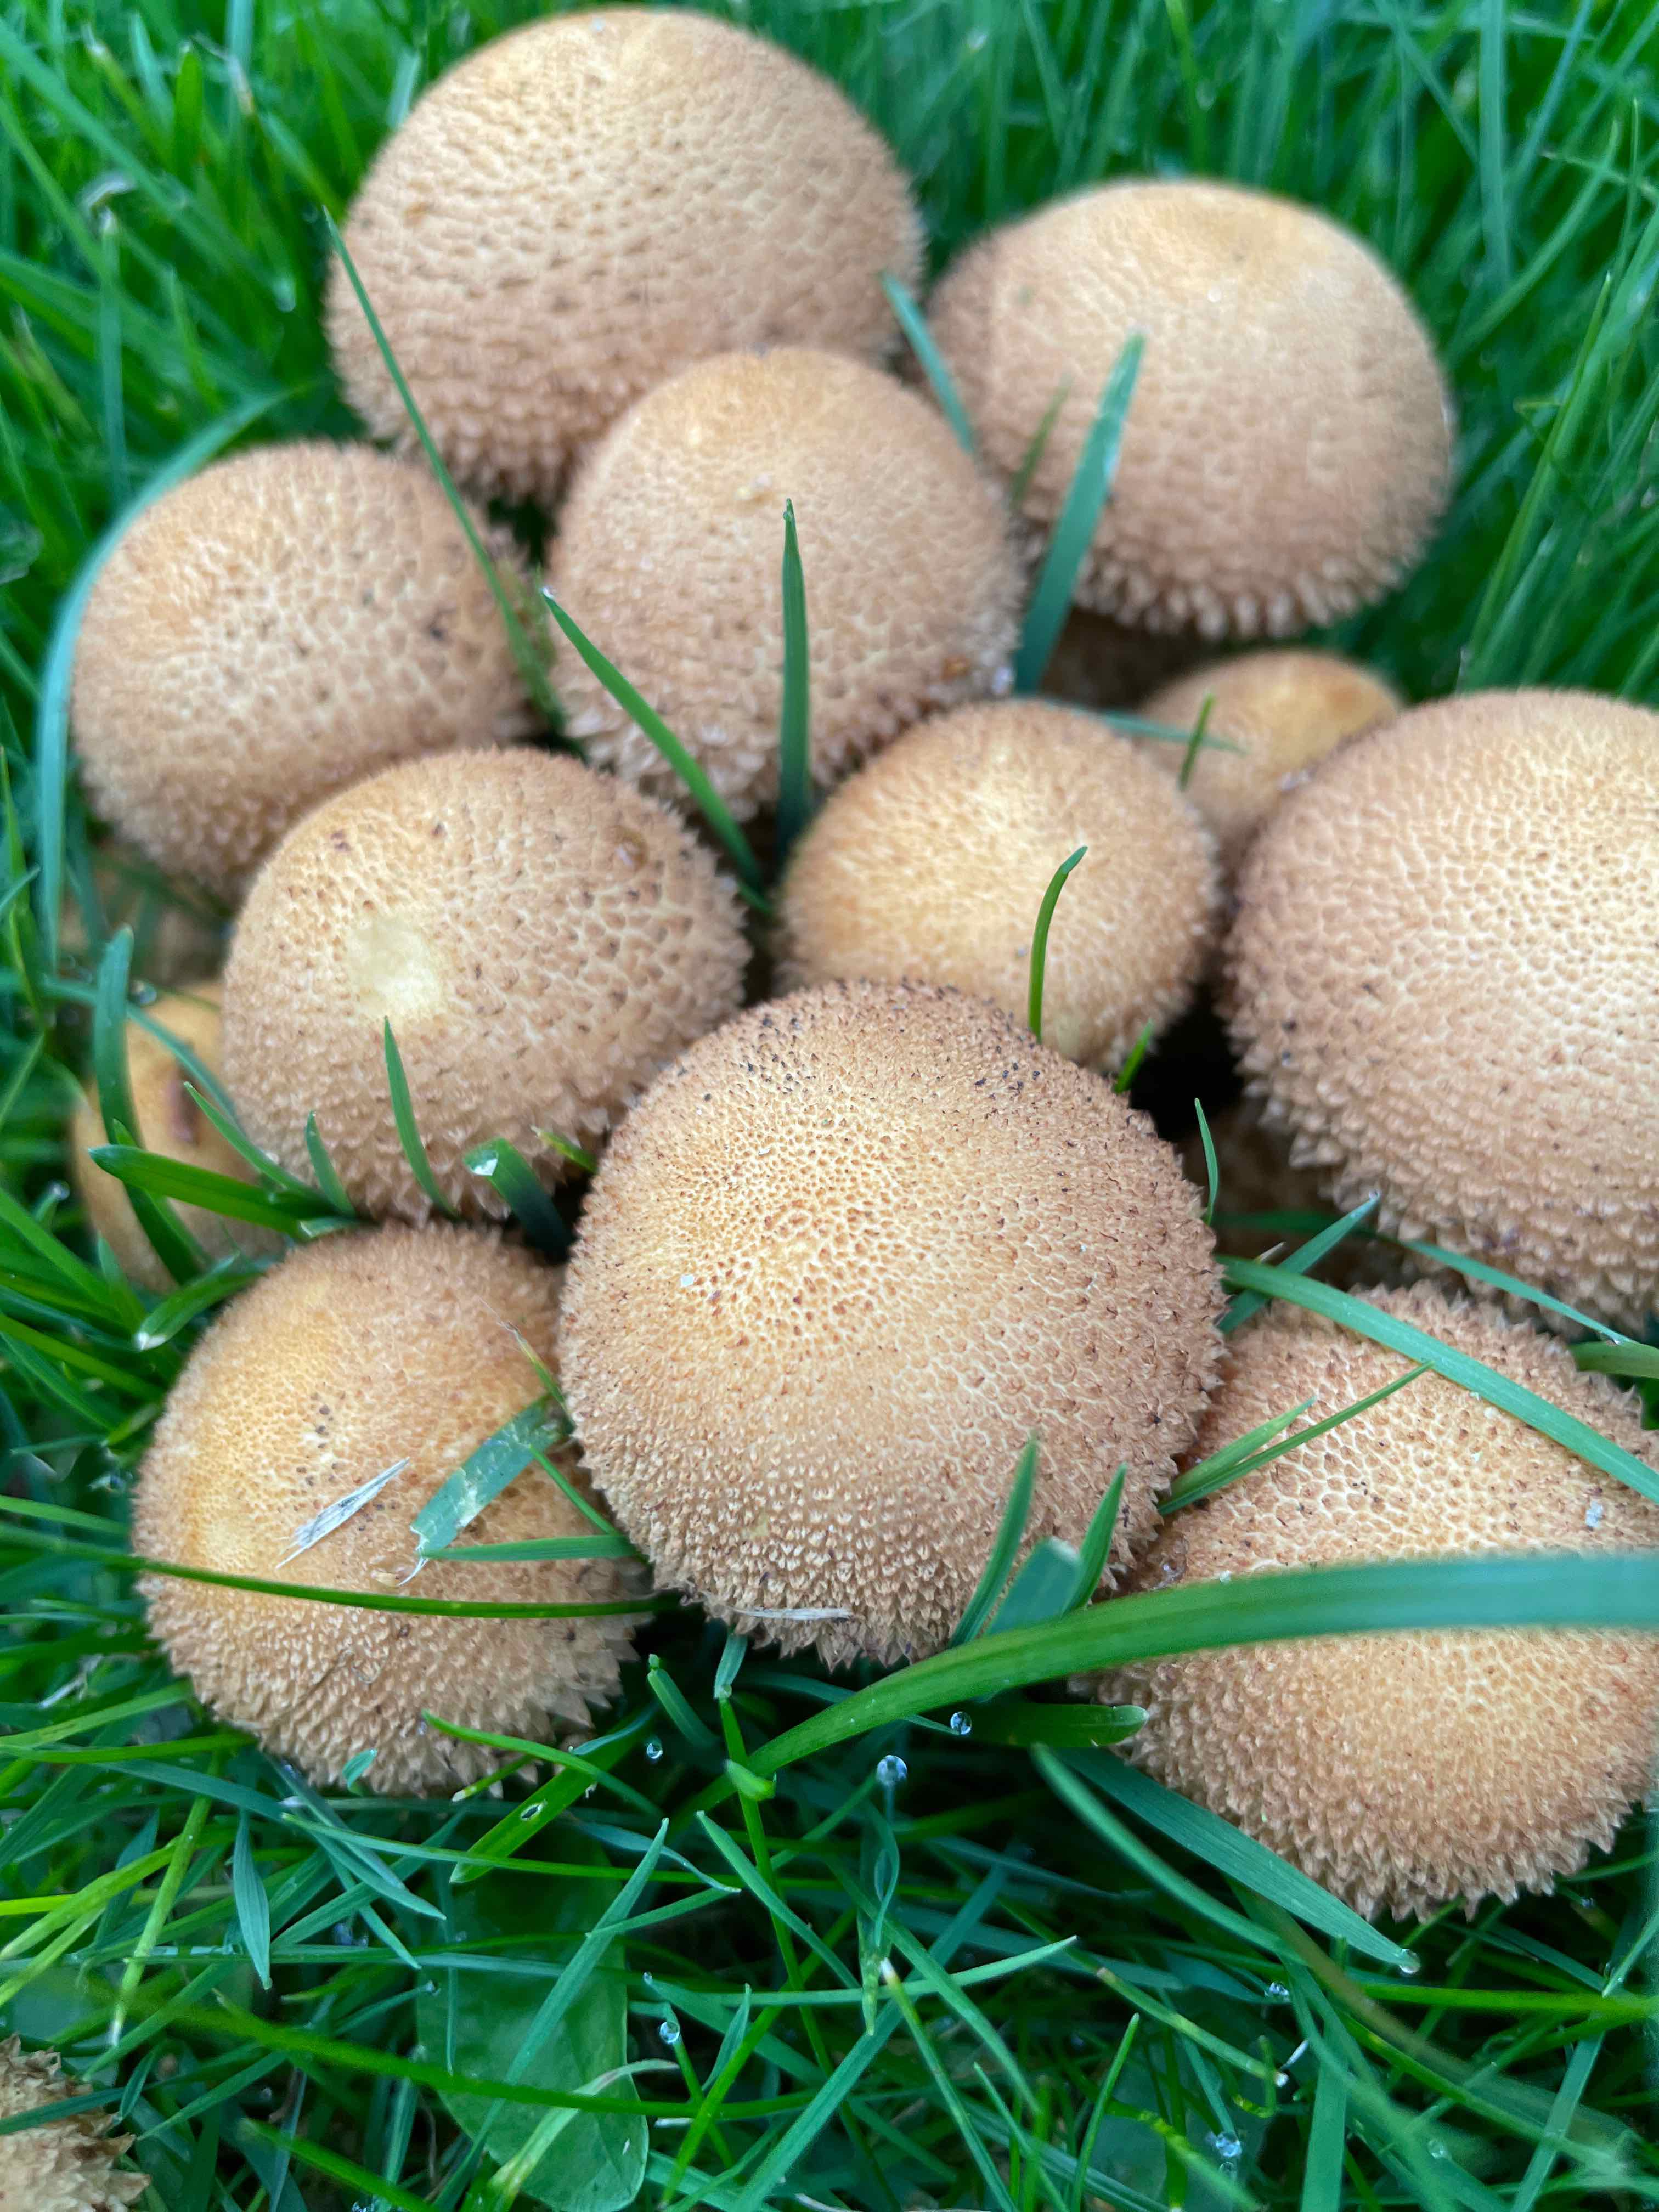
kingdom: Fungi
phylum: Basidiomycota
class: Agaricomycetes
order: Agaricales
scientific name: Agaricales
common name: champignonordenen
